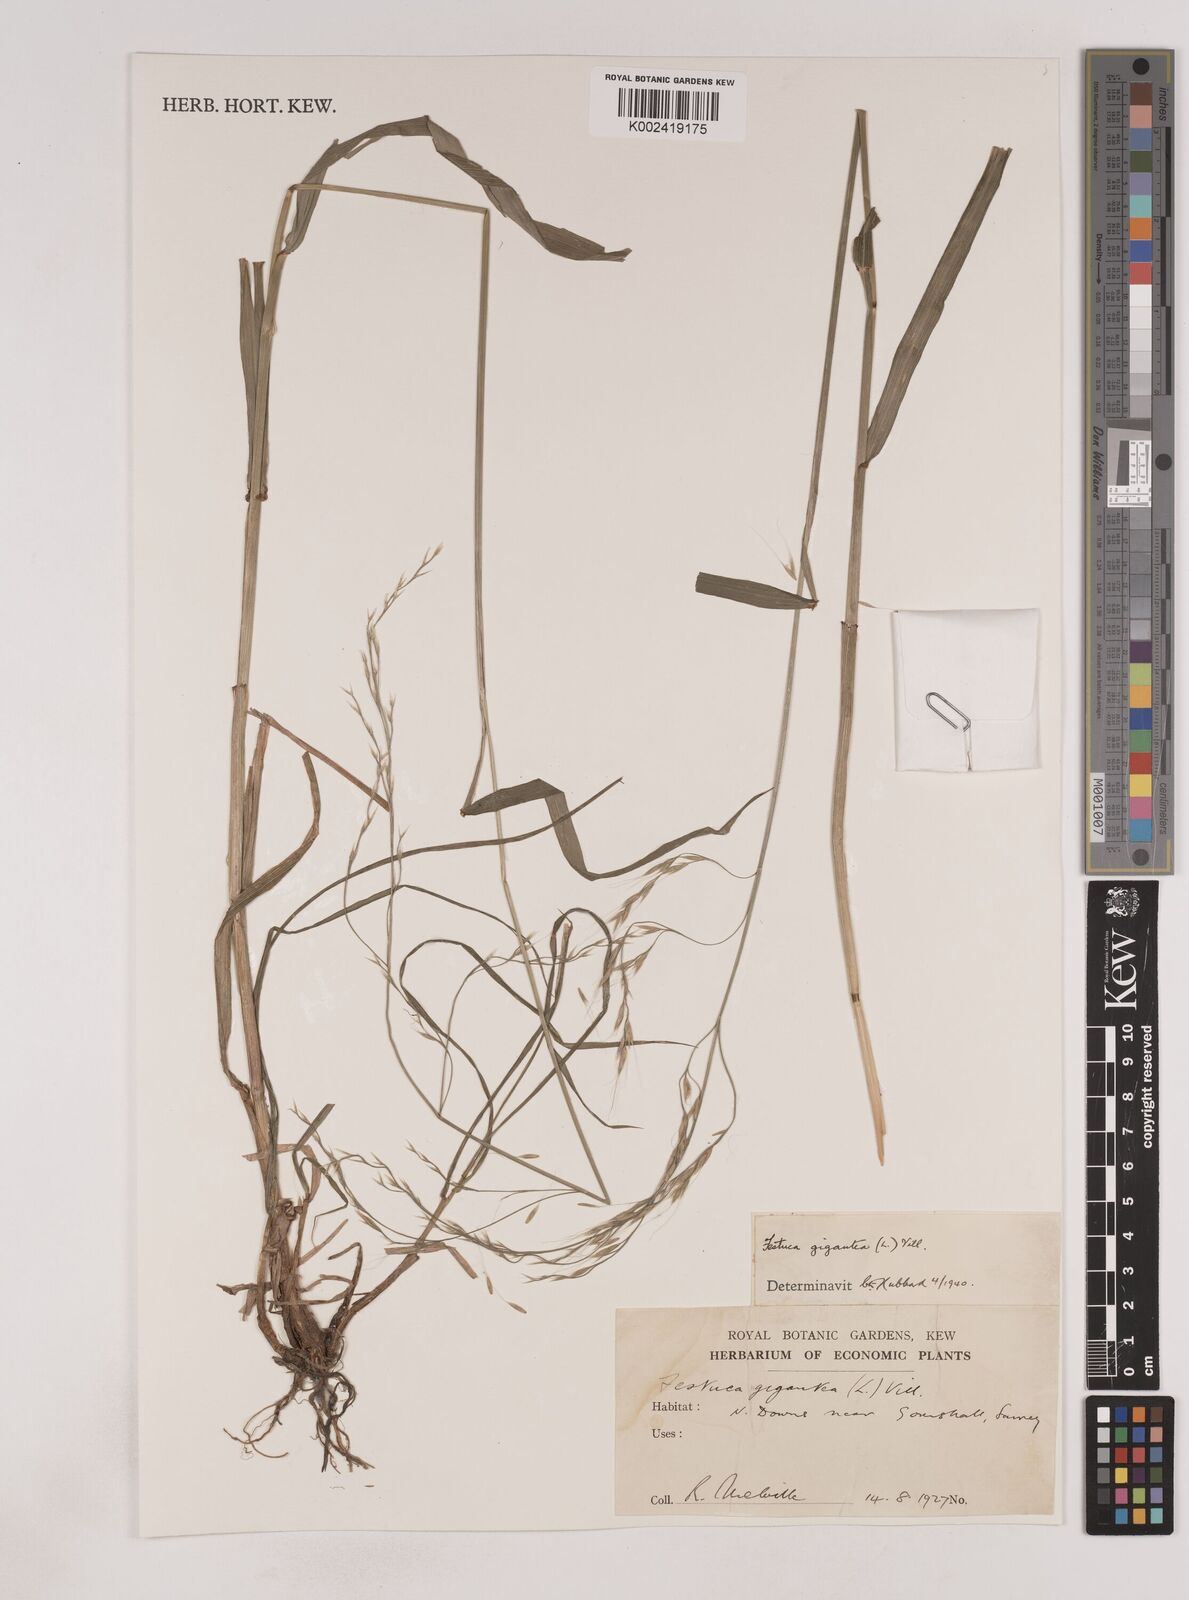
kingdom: Plantae
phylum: Tracheophyta
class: Liliopsida
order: Poales
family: Poaceae
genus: Lolium
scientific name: Lolium giganteum
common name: Giant fescue
